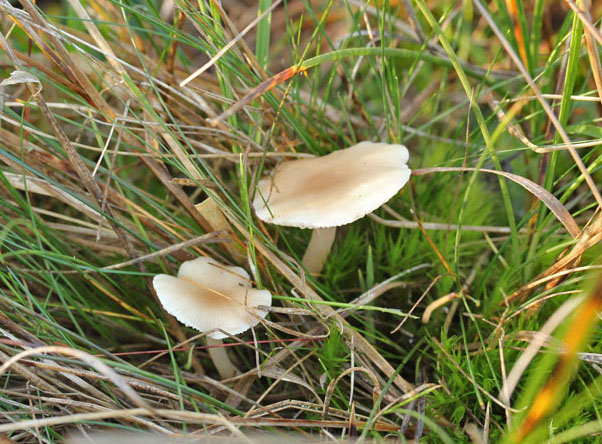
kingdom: Fungi
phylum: Basidiomycota
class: Agaricomycetes
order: Agaricales
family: Tricholomataceae
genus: Clitocybe
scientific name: Clitocybe diatreta
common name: kødfarvet tragthat
